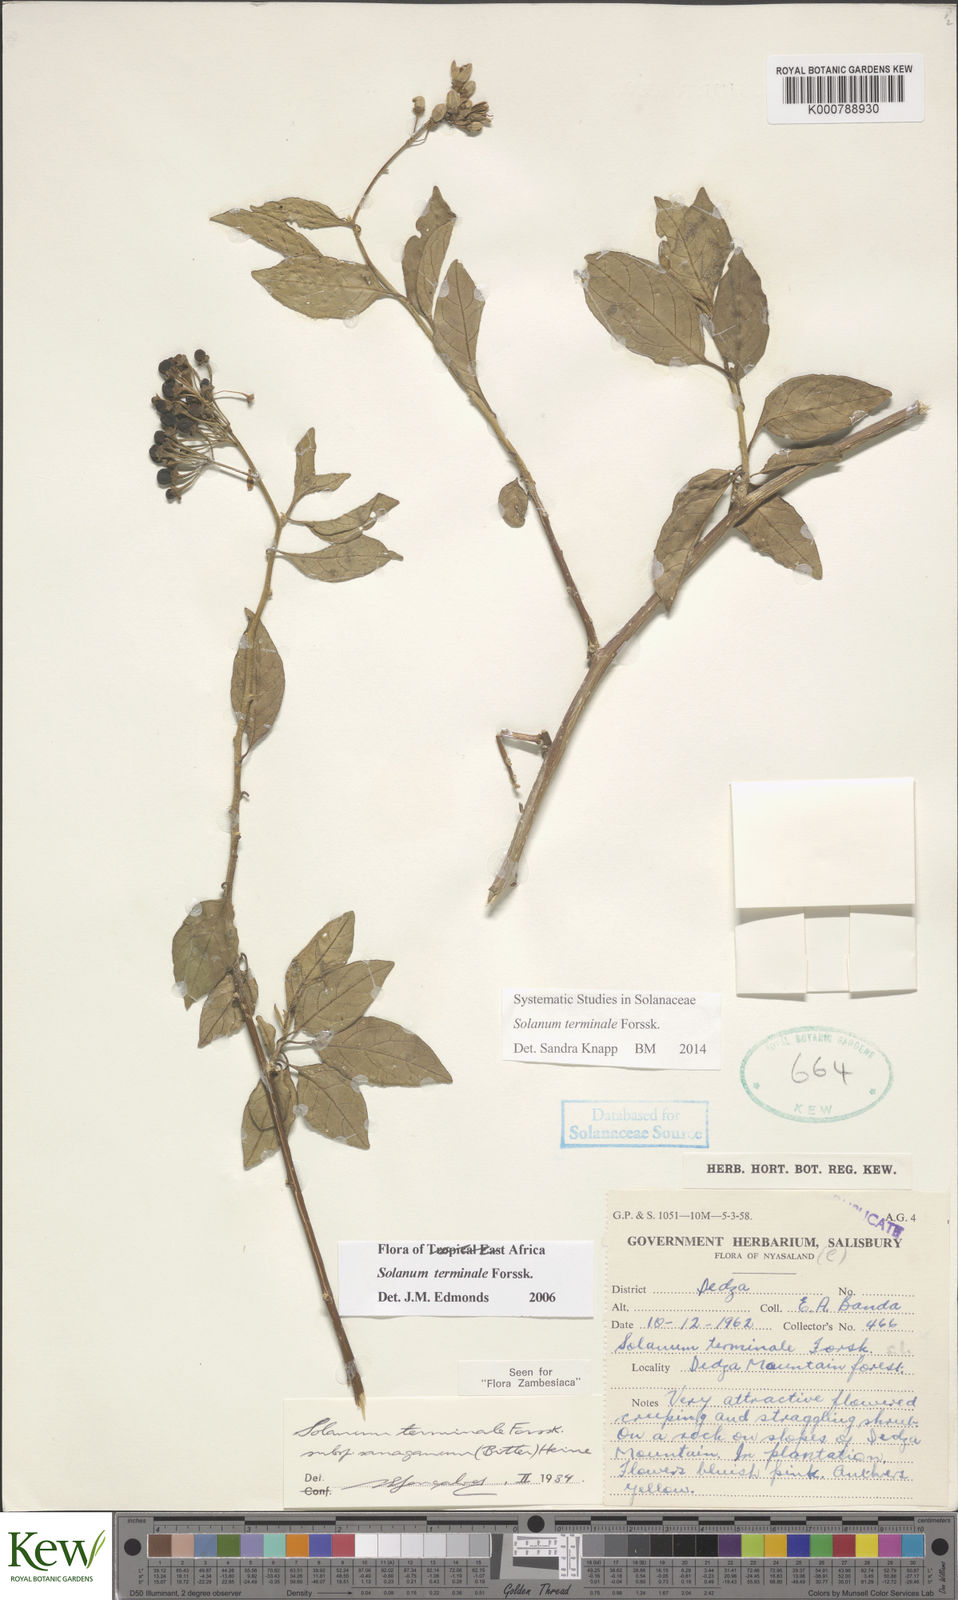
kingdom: Plantae
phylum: Tracheophyta
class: Magnoliopsida
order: Solanales
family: Solanaceae
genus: Solanum
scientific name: Solanum terminale
